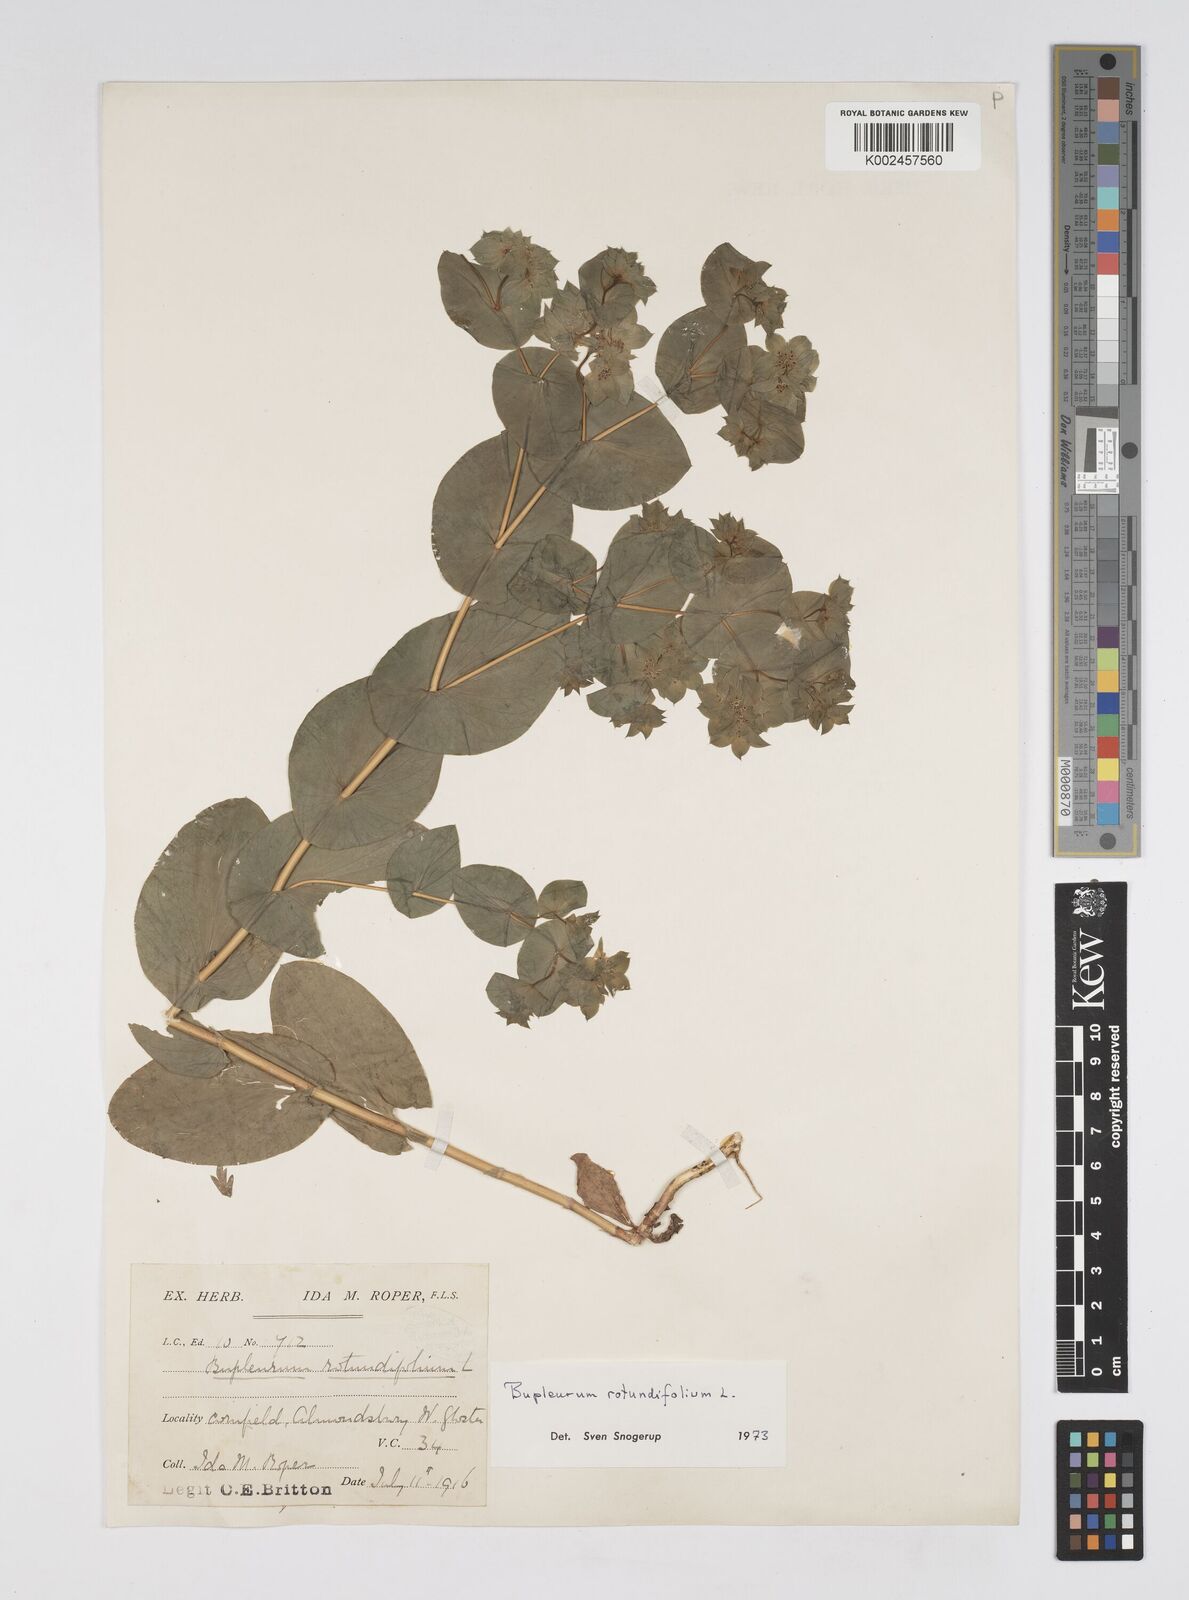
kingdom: Plantae
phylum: Tracheophyta
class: Magnoliopsida
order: Apiales
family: Apiaceae
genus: Bupleurum
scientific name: Bupleurum rotundifolium
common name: Thorow-wax
